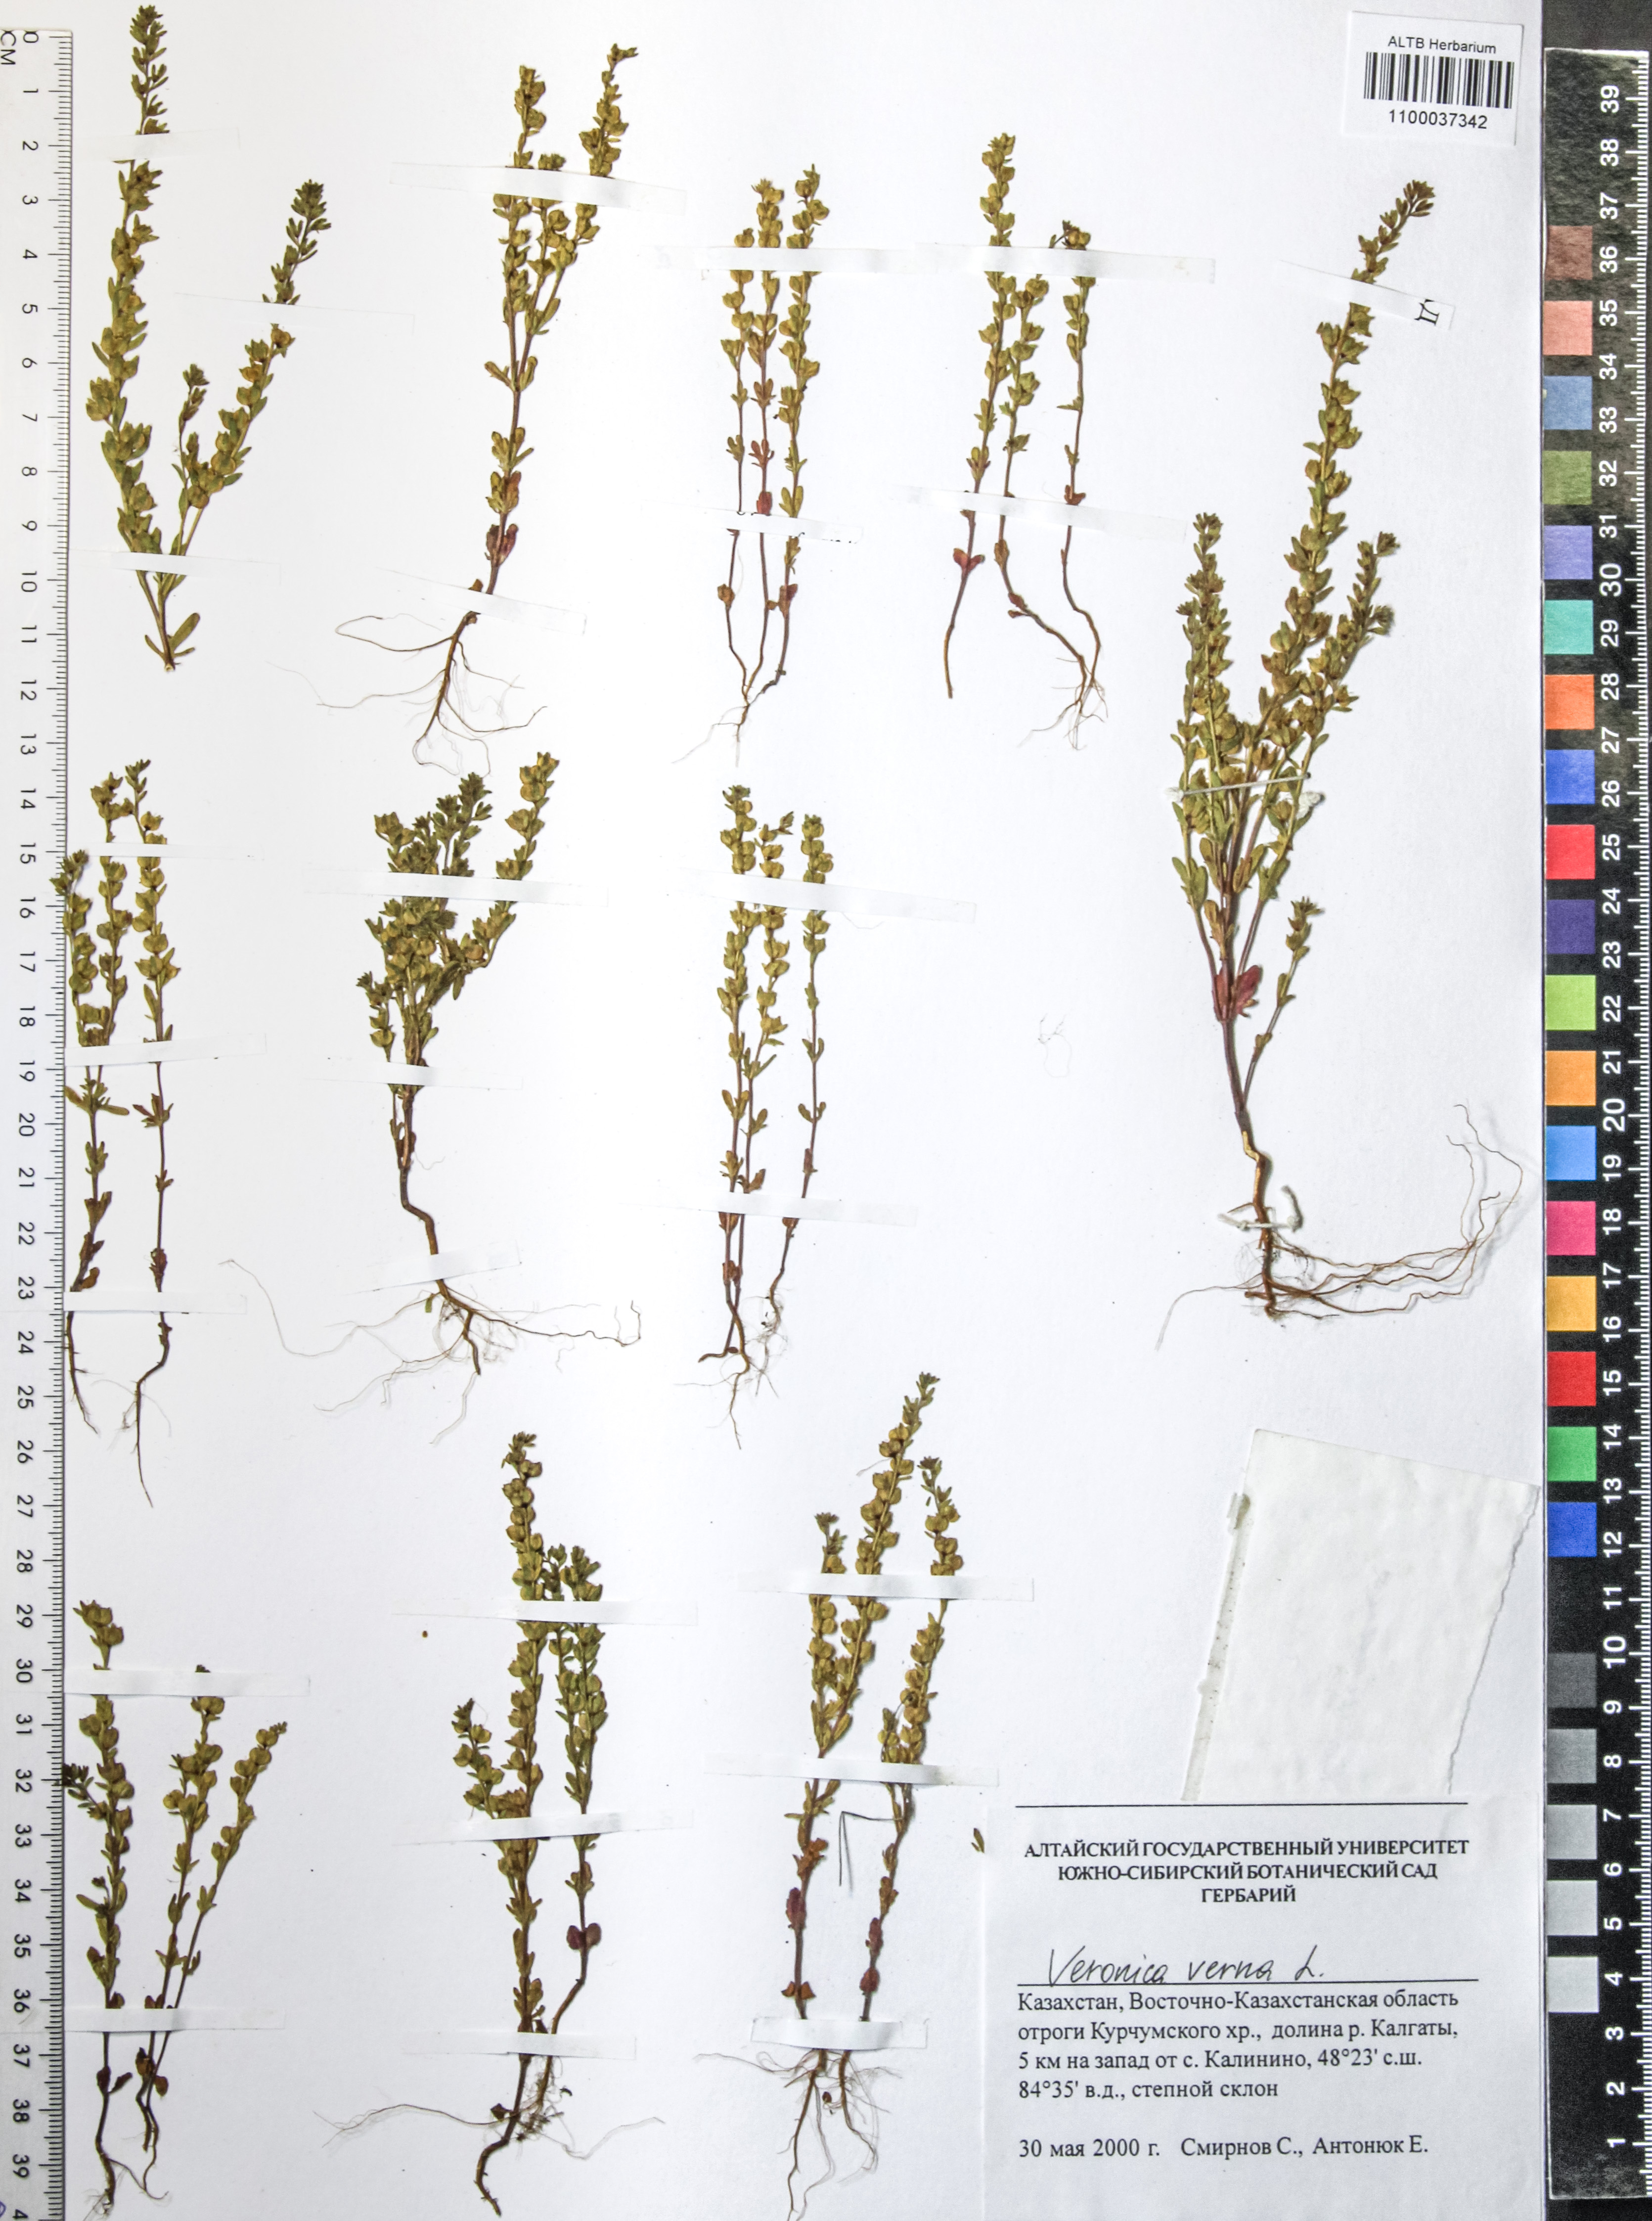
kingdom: Plantae
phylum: Tracheophyta
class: Magnoliopsida
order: Lamiales
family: Plantaginaceae
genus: Veronica
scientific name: Veronica verna
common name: Spring speedwell
